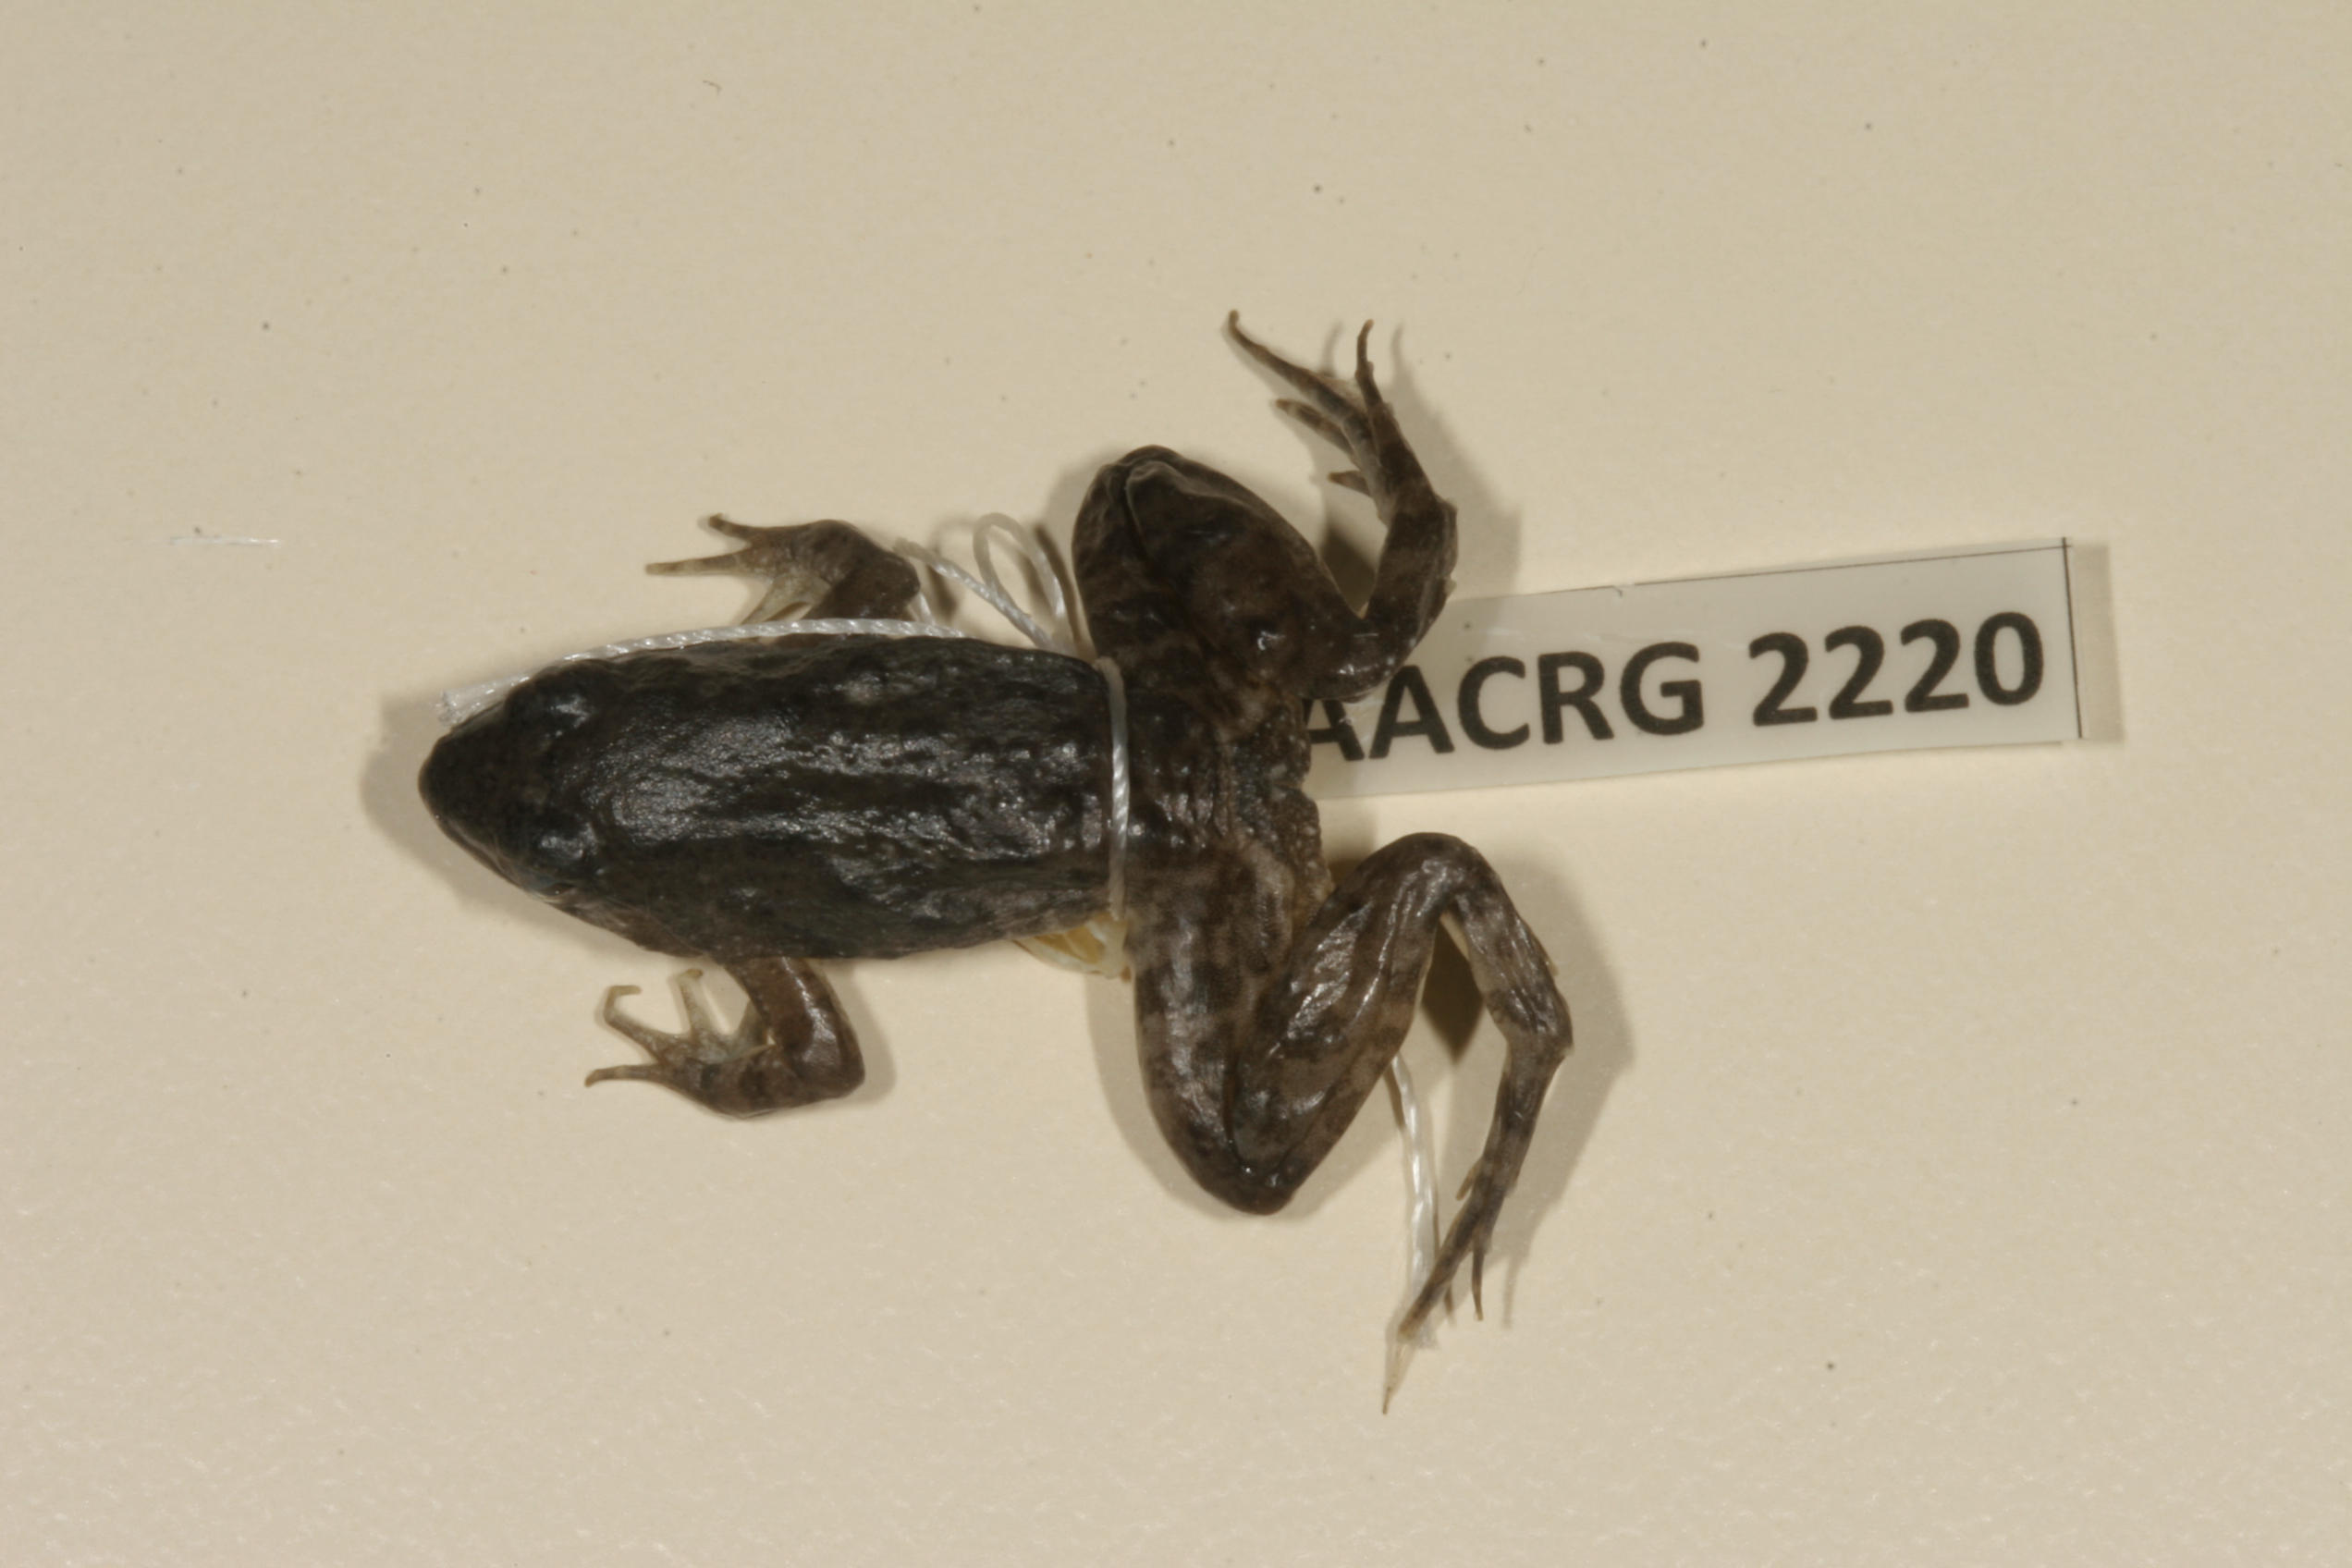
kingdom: Animalia
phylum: Chordata
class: Amphibia
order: Anura
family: Phrynobatrachidae
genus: Phrynobatrachus
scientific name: Phrynobatrachus natalensis
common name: Snoring puddle frog
